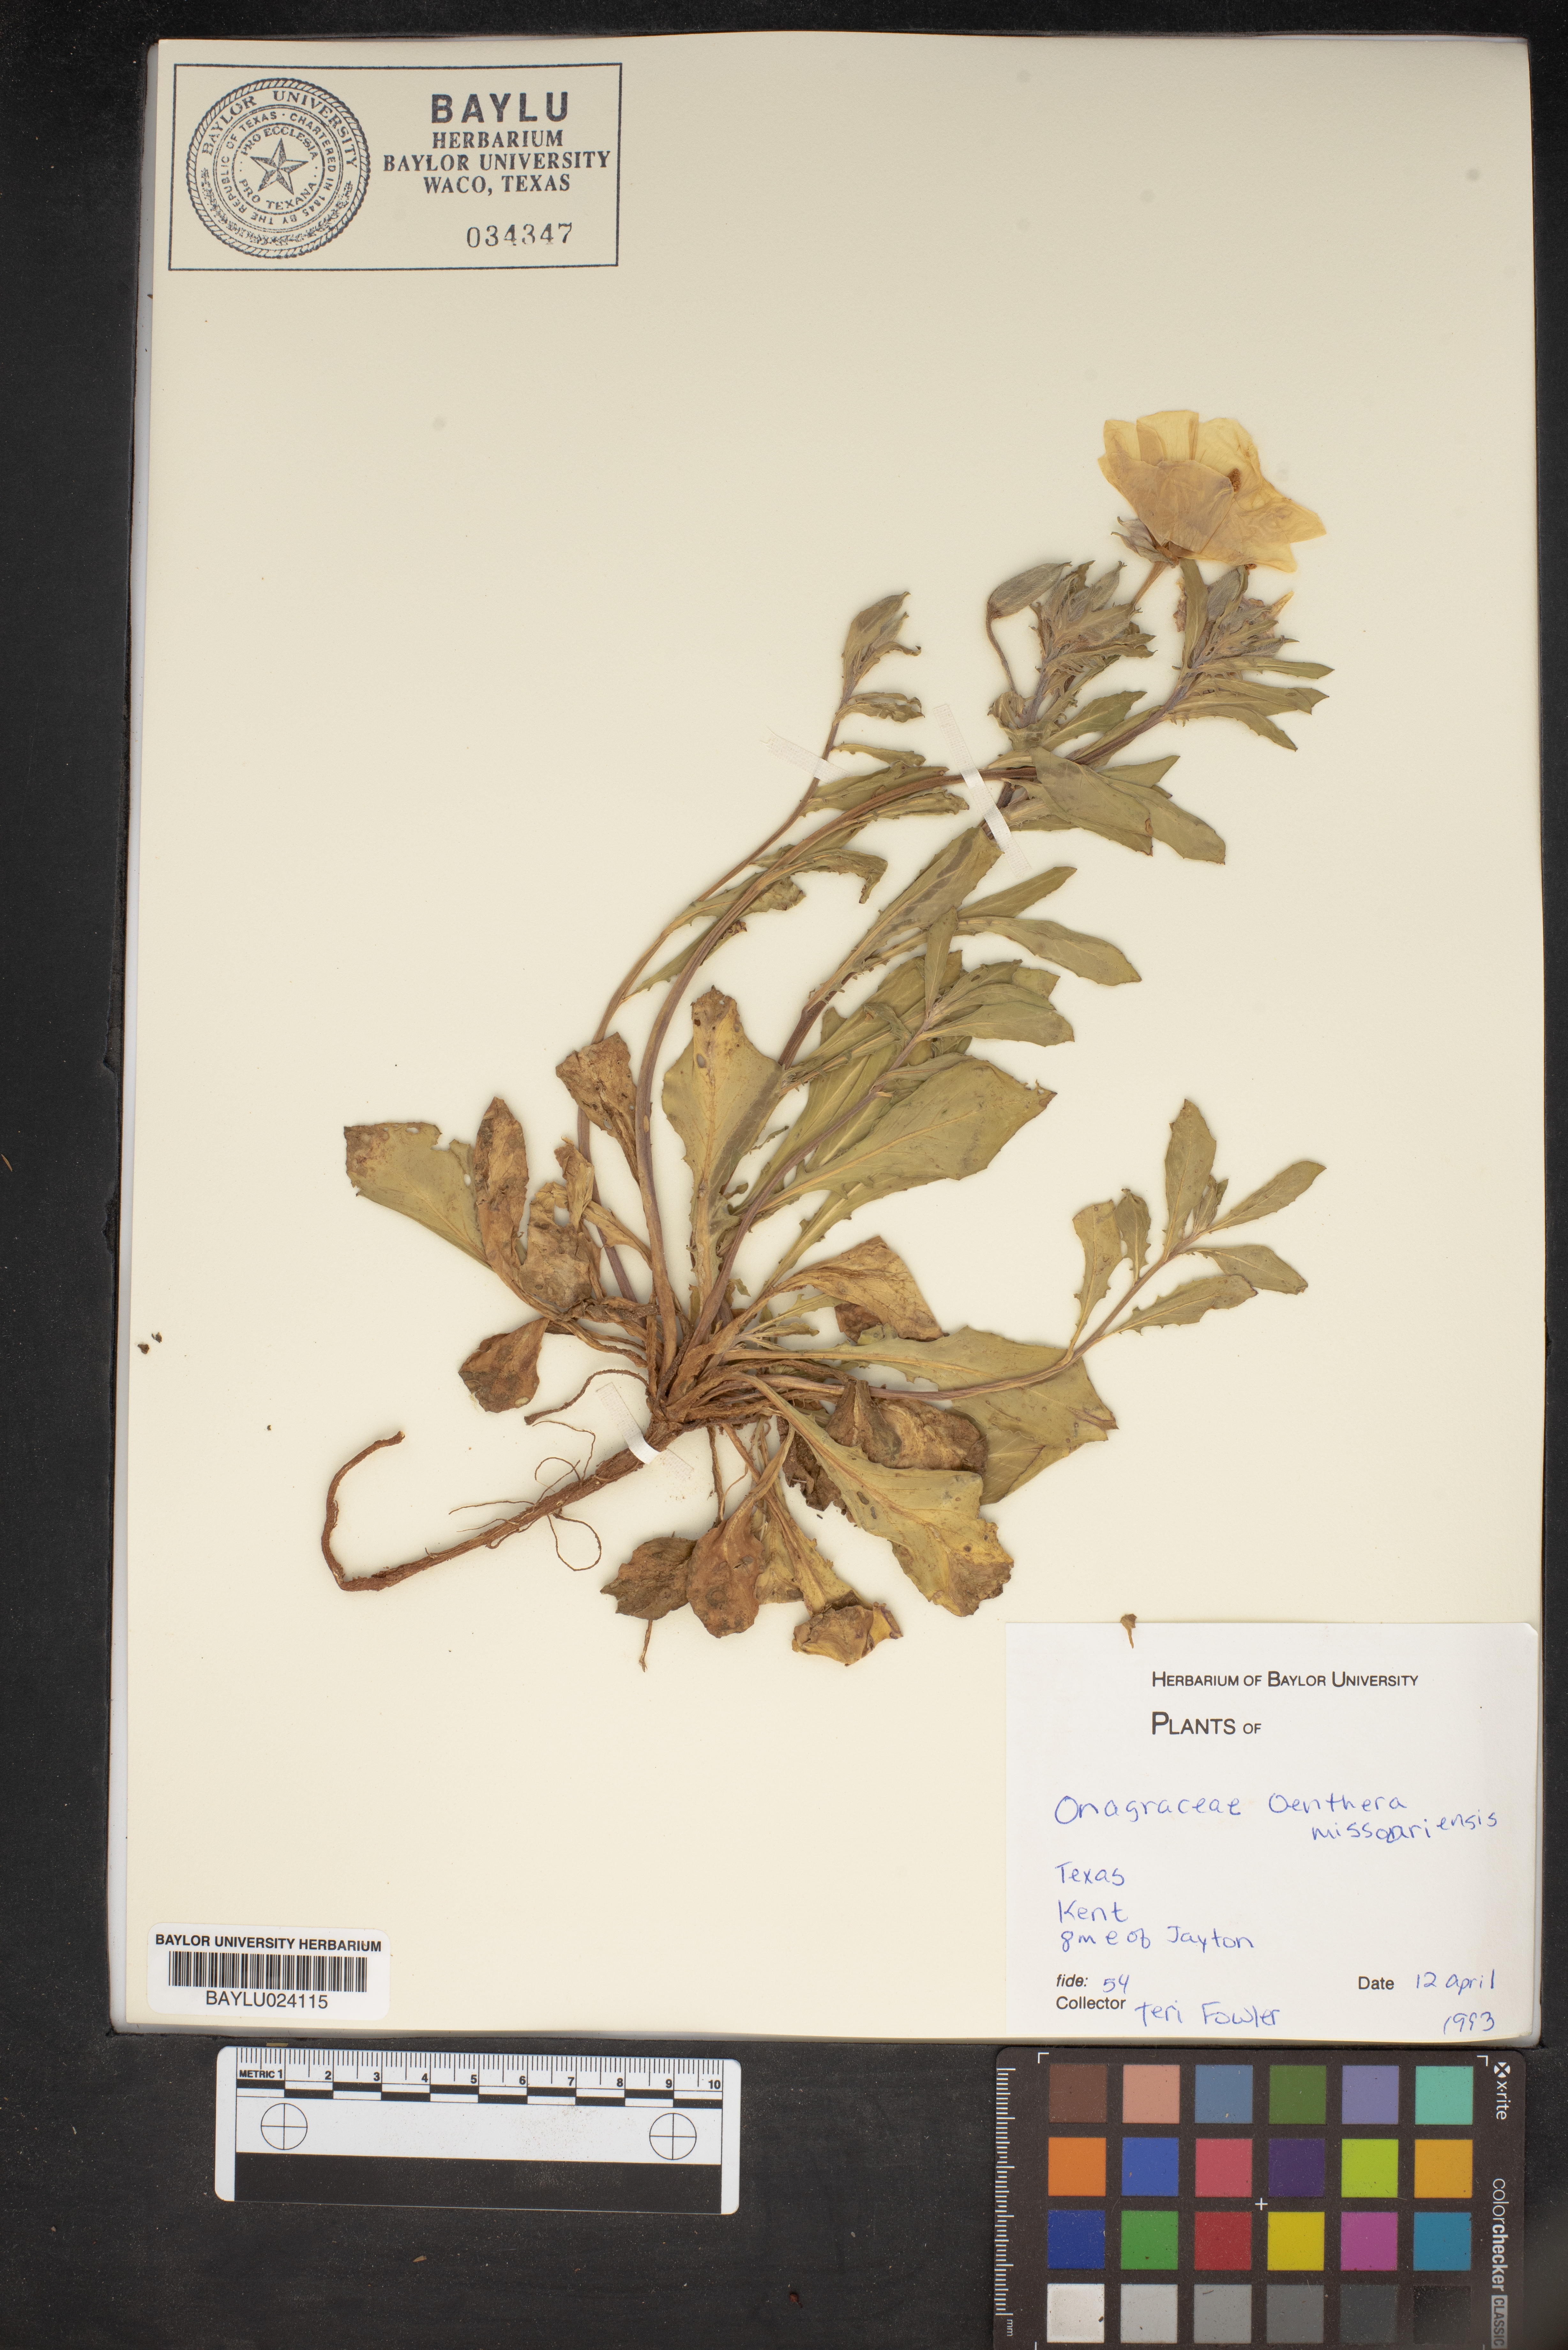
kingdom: Plantae
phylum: Tracheophyta
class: Magnoliopsida
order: Myrtales
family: Onagraceae
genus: Oenothera
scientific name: Oenothera macrocarpa
